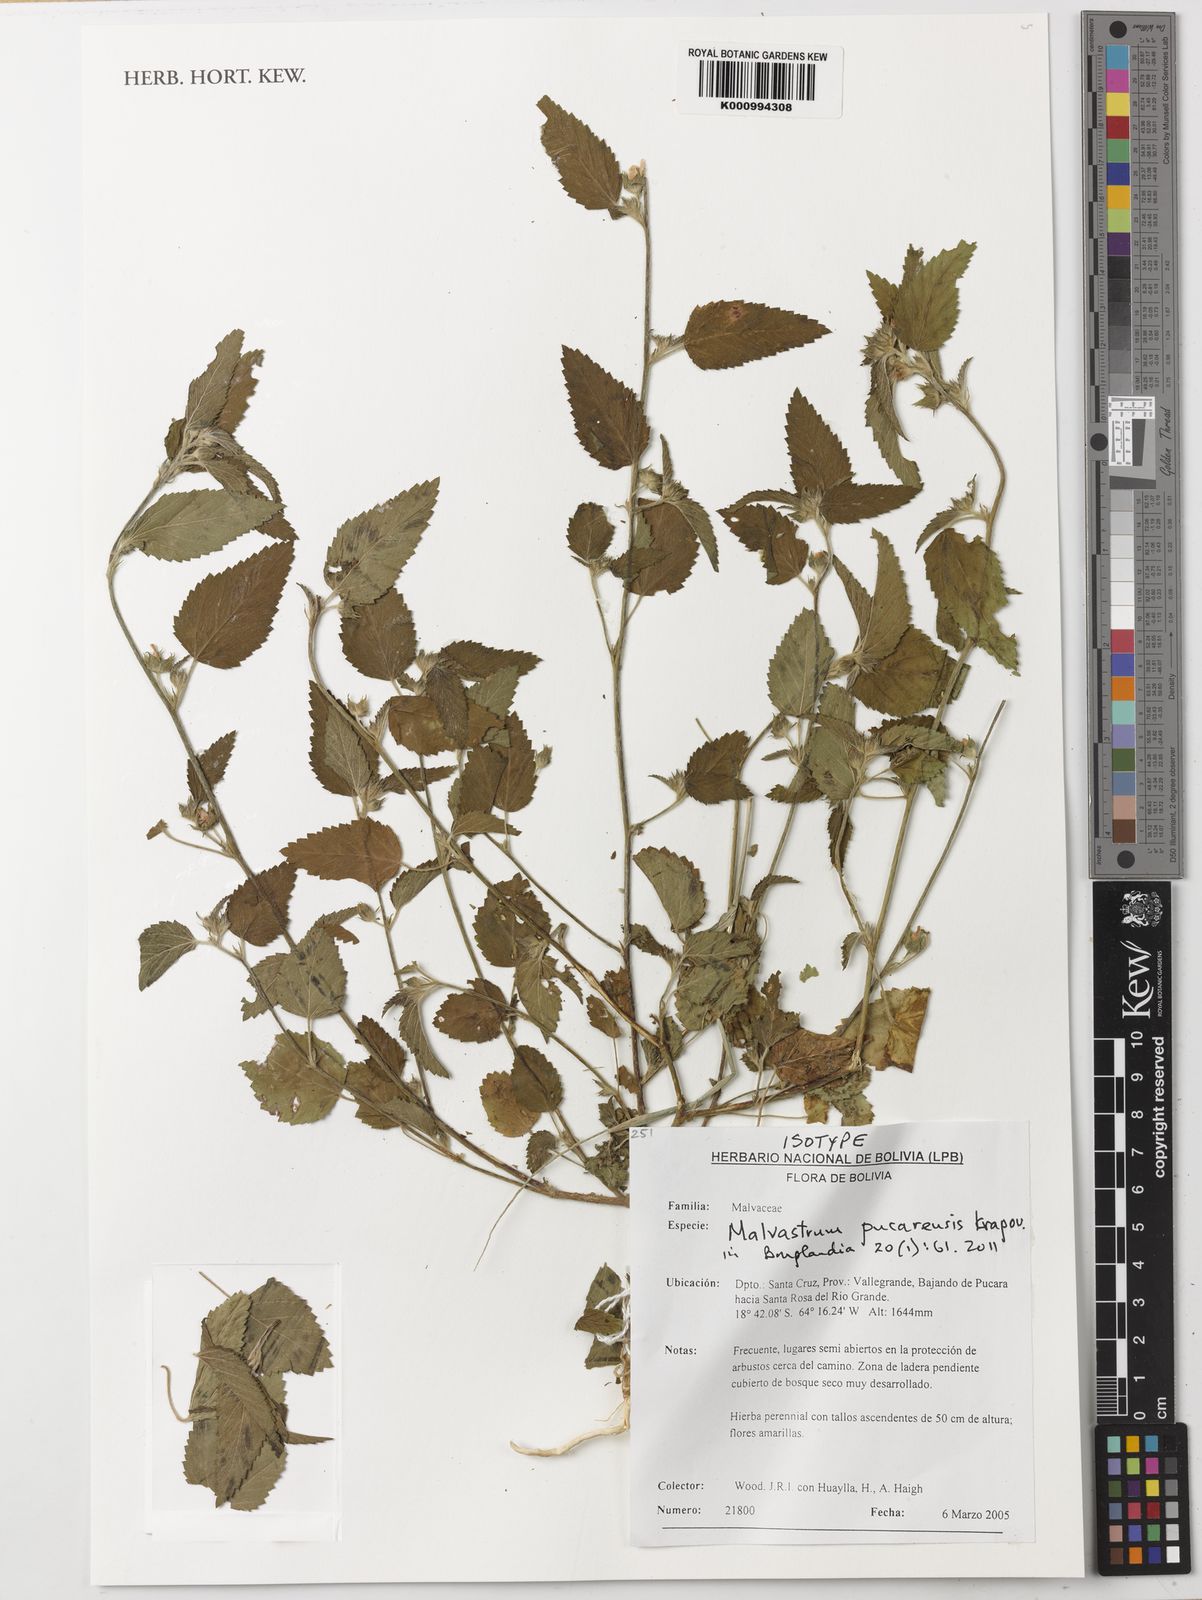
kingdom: Plantae
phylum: Tracheophyta
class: Magnoliopsida
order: Malvales
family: Malvaceae
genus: Malvastrum
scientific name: Malvastrum pucarense
